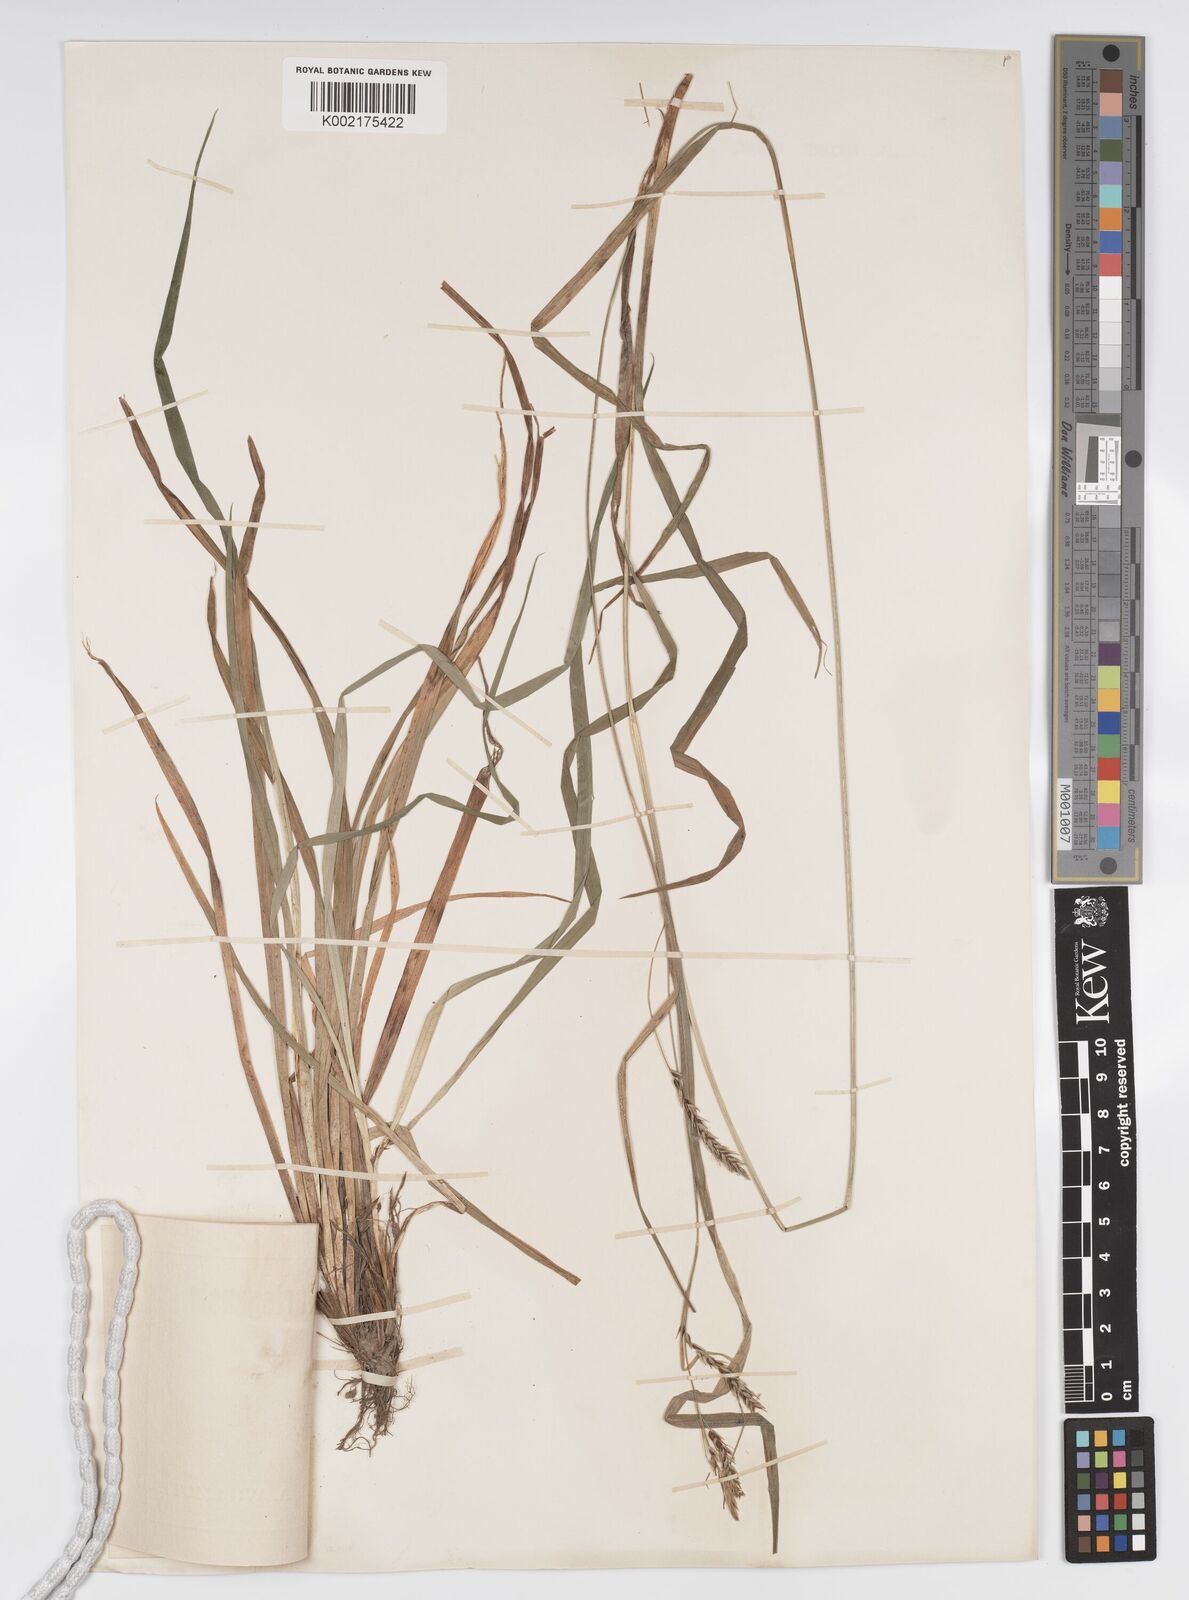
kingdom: Plantae
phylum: Tracheophyta
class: Liliopsida
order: Poales
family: Cyperaceae
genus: Carex
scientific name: Carex sylvatica
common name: Wood-sedge
